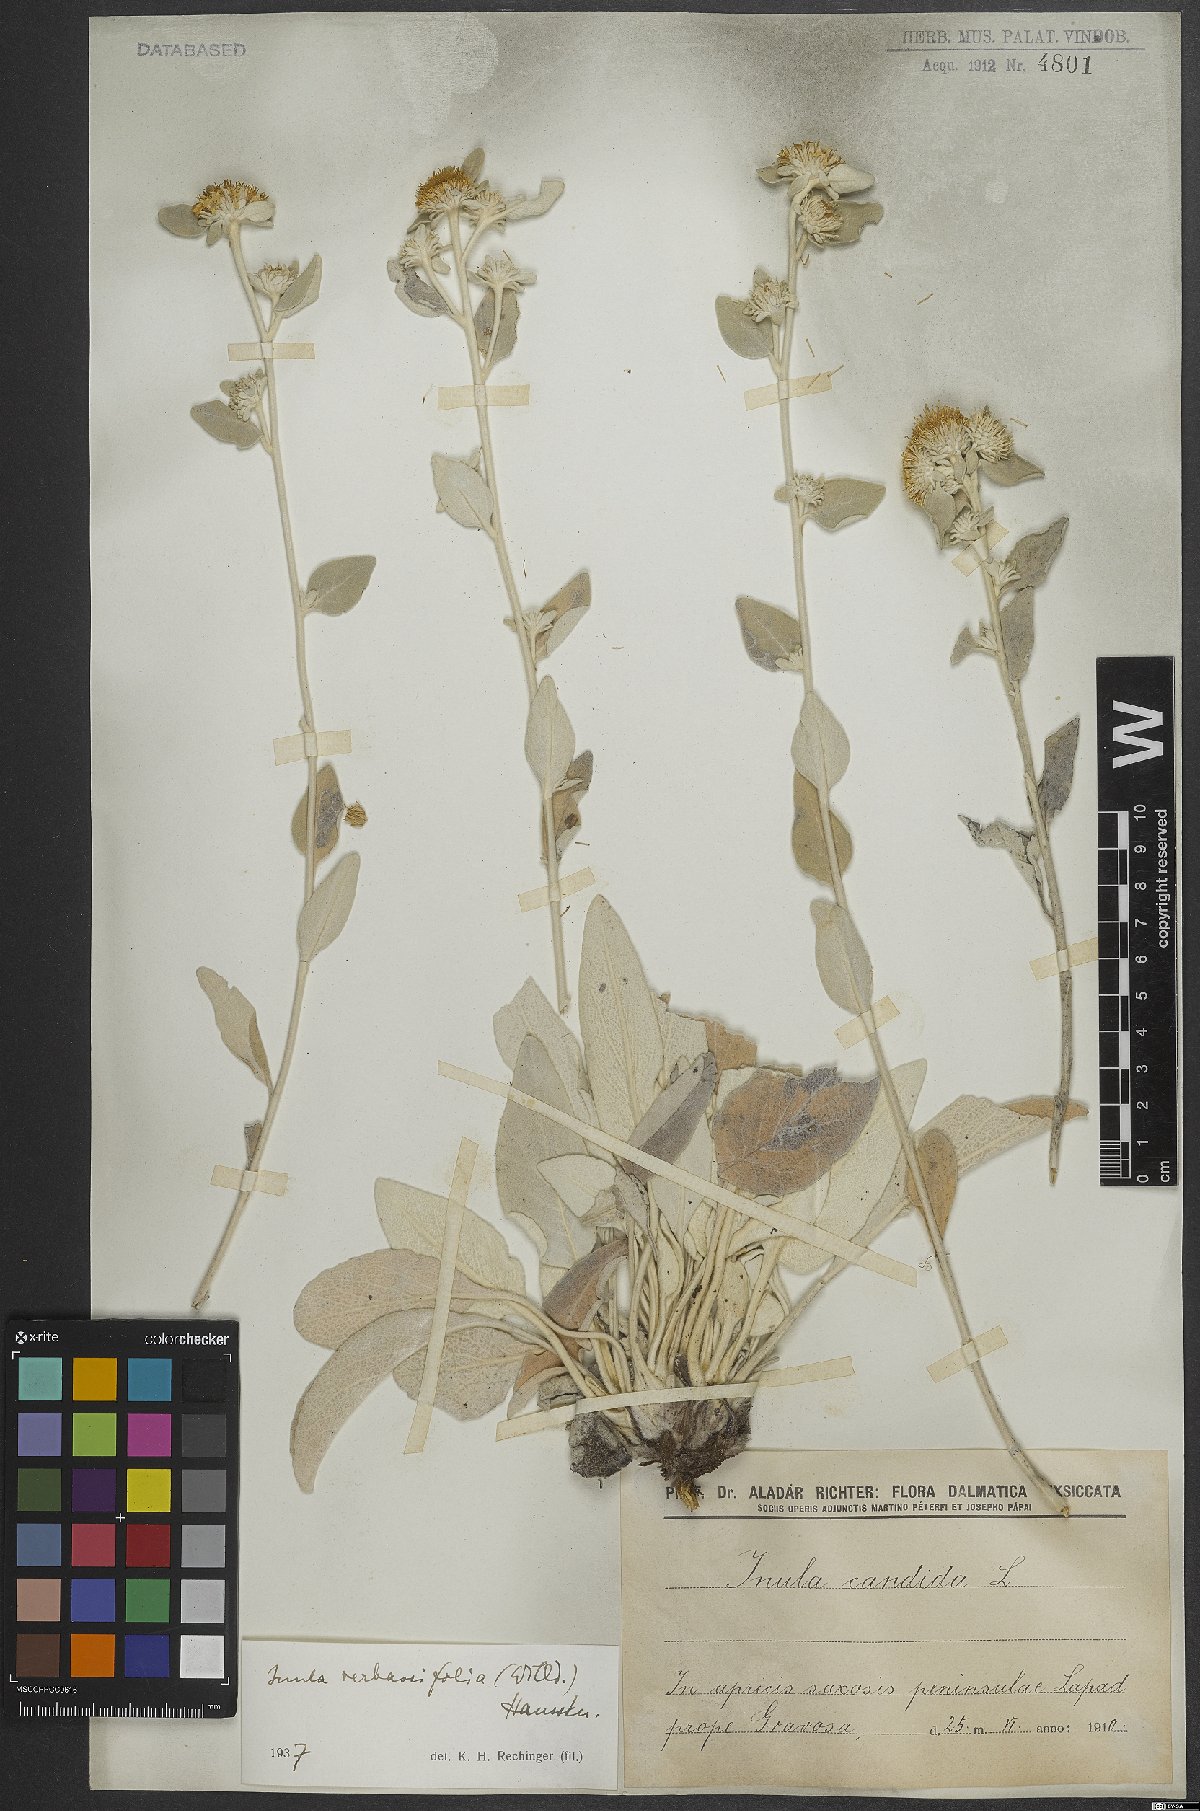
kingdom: Plantae
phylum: Tracheophyta
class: Magnoliopsida
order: Asterales
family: Asteraceae
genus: Pentanema
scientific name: Pentanema verbascifolium
